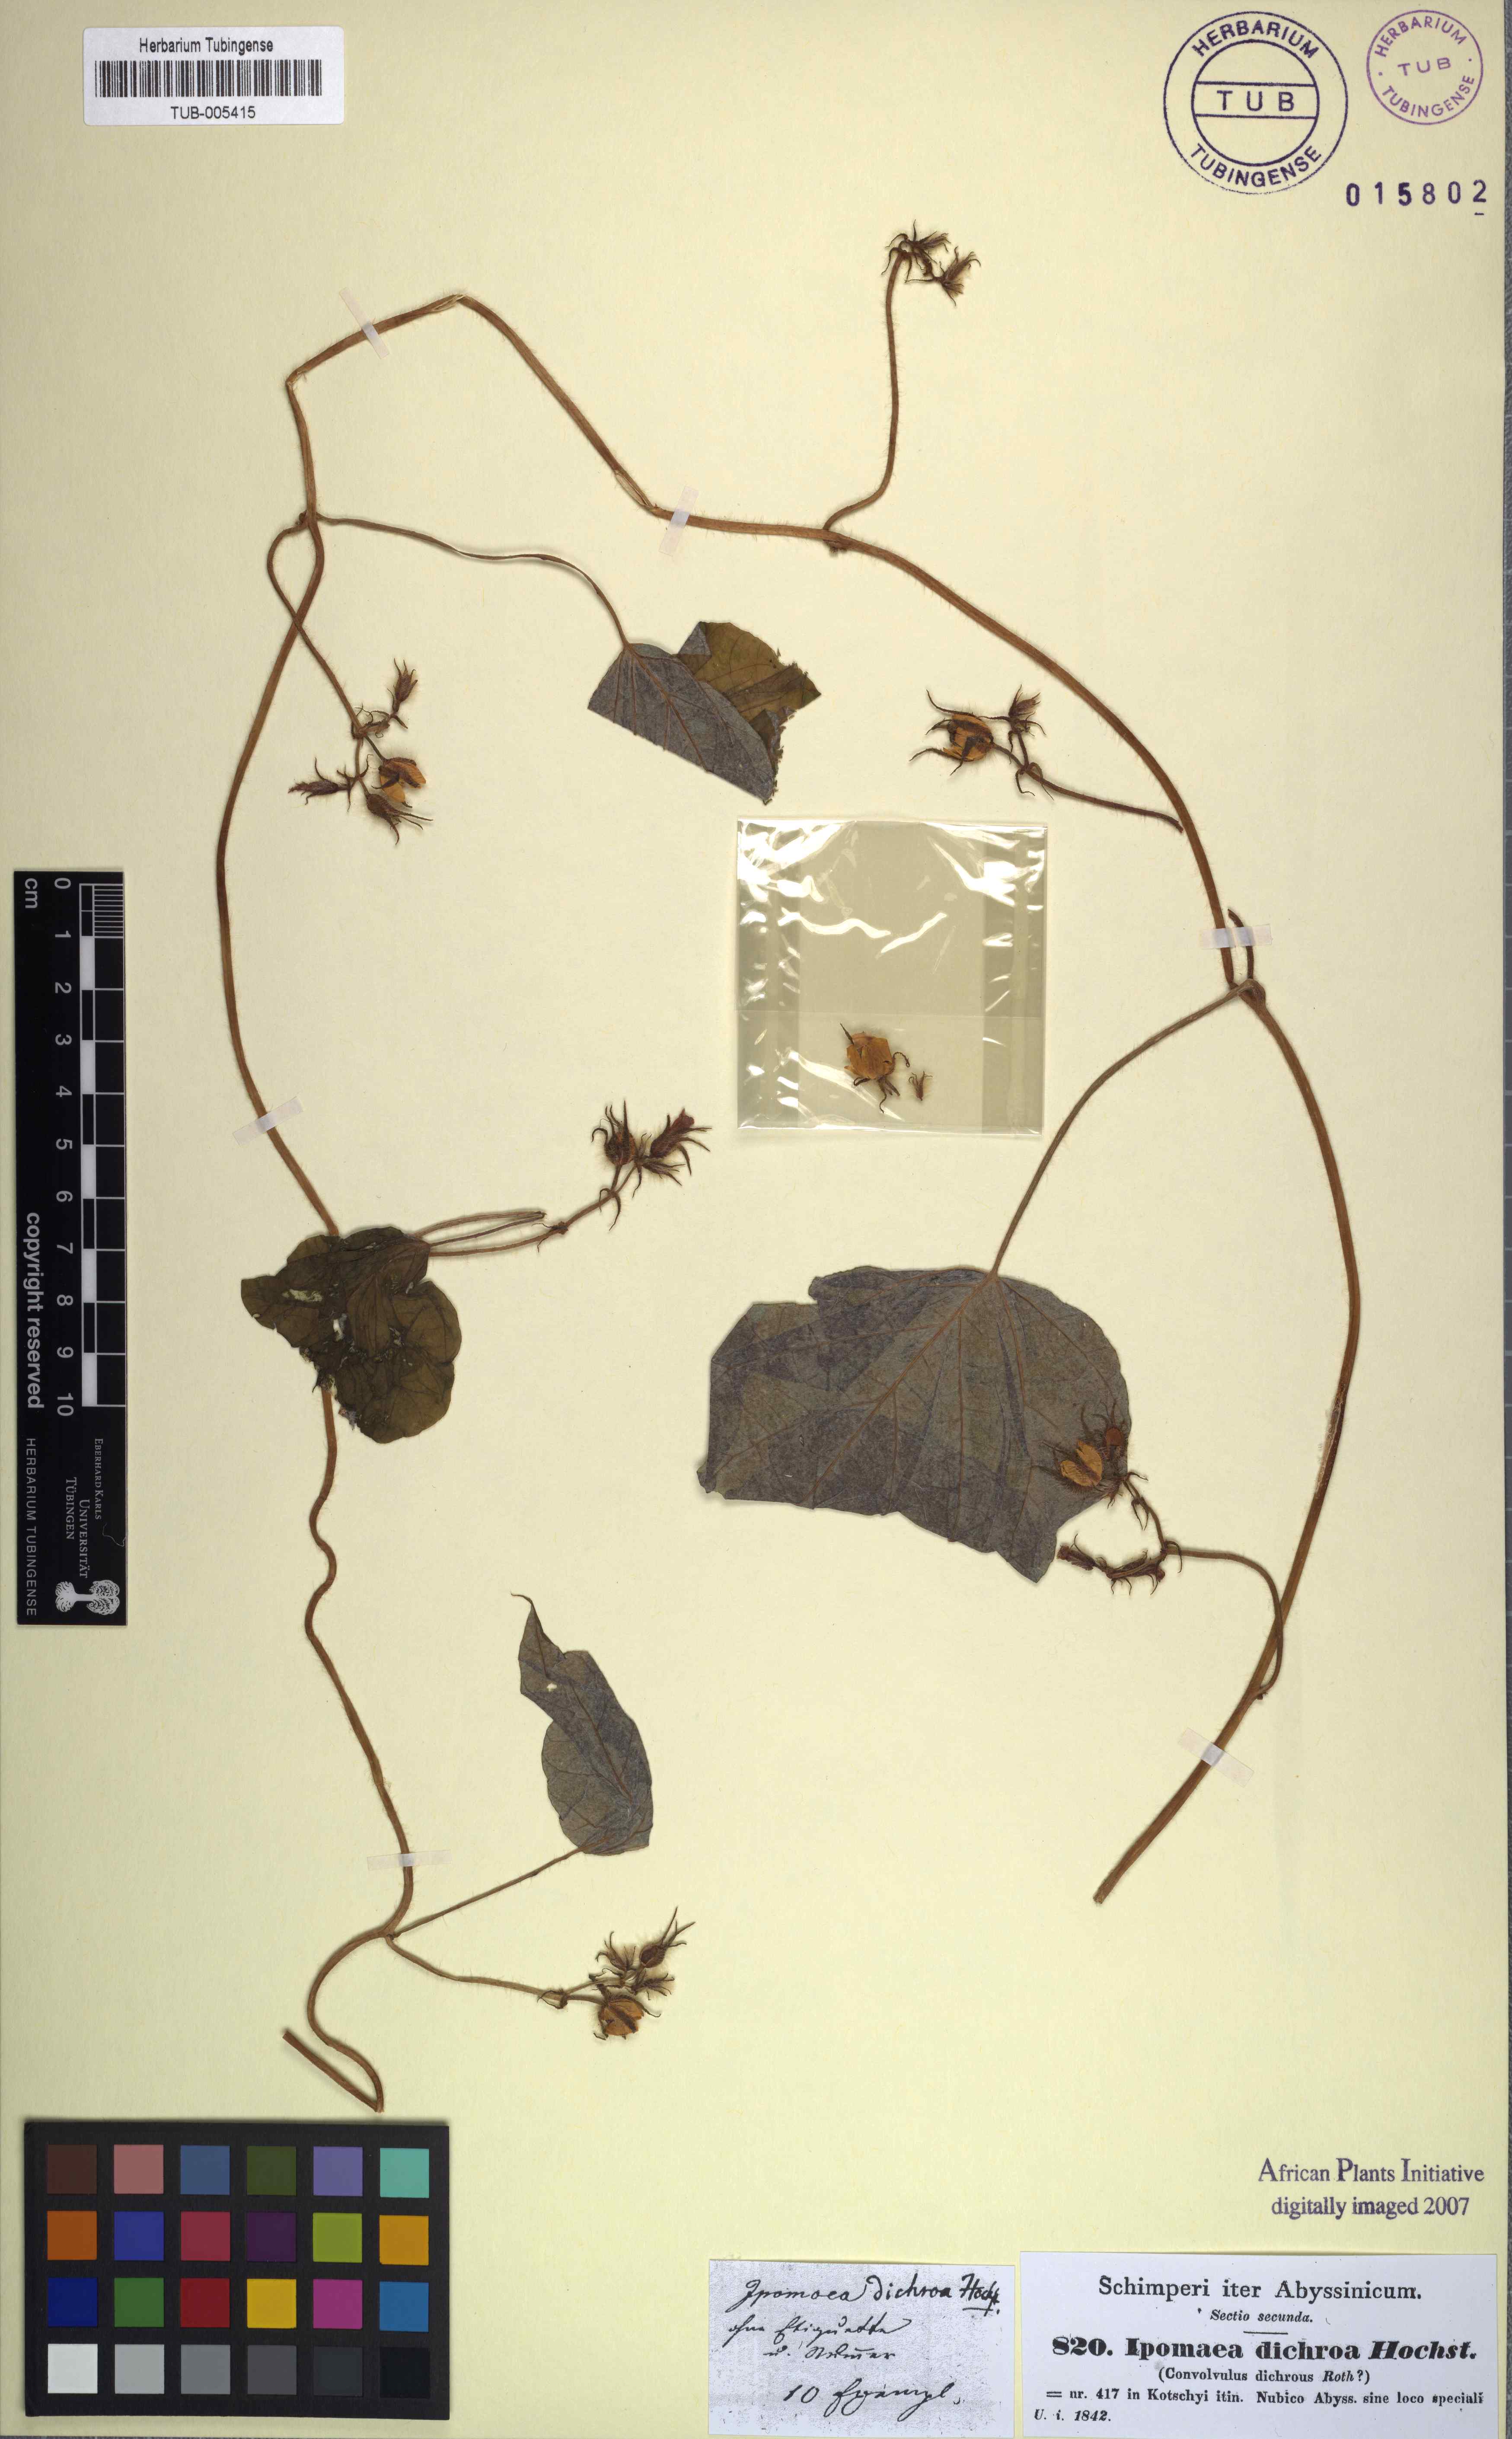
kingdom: Plantae
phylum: Tracheophyta
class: Magnoliopsida
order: Solanales
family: Convolvulaceae
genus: Ipomoea
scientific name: Ipomoea arachnosperma
